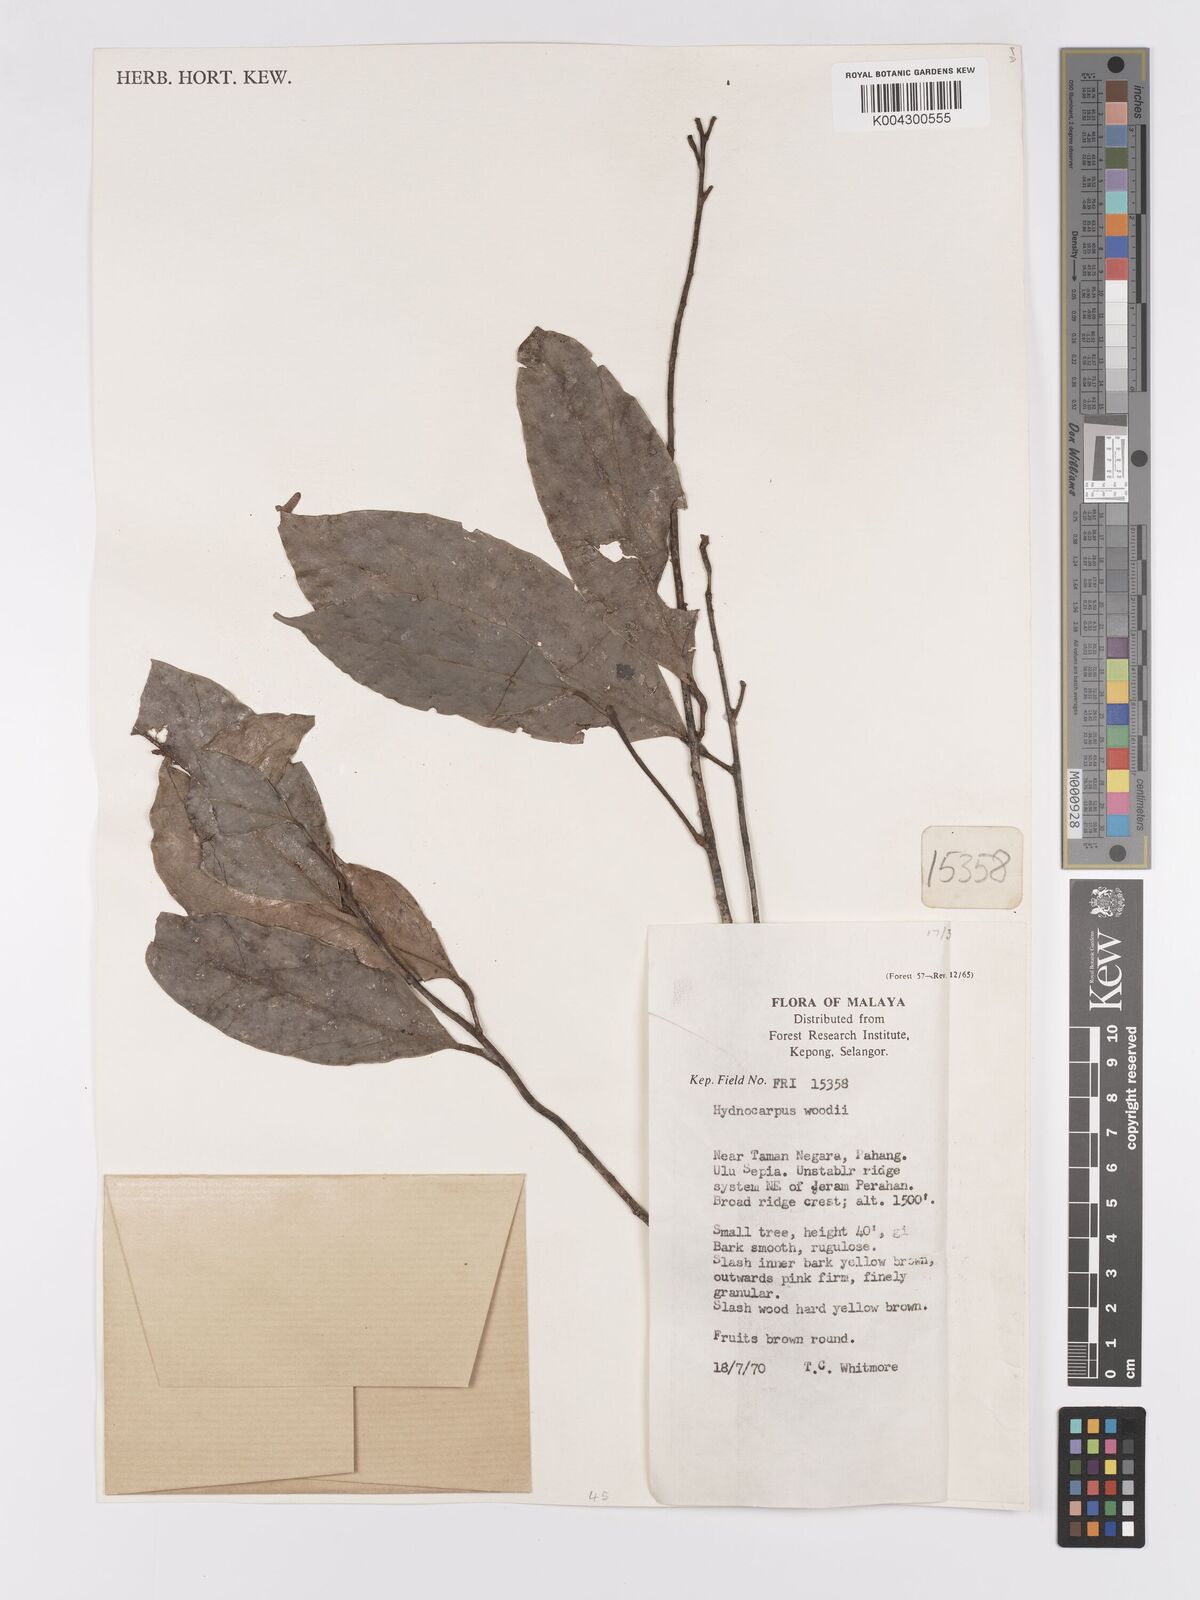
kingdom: Plantae
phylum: Tracheophyta
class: Magnoliopsida
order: Malpighiales
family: Achariaceae
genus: Hydnocarpus
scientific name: Hydnocarpus woodii
